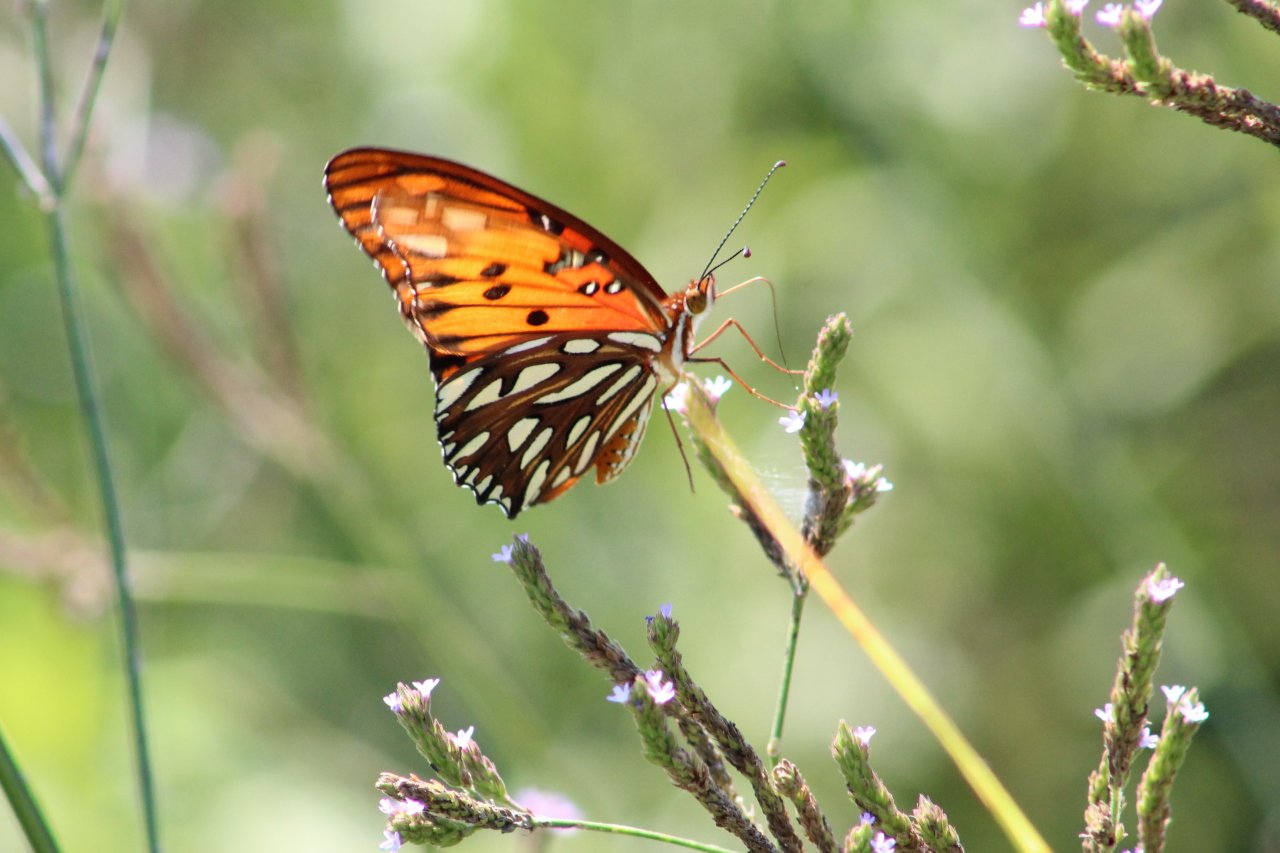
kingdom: Animalia
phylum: Arthropoda
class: Insecta
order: Lepidoptera
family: Nymphalidae
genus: Dione
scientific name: Dione vanillae
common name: Gulf Fritillary
